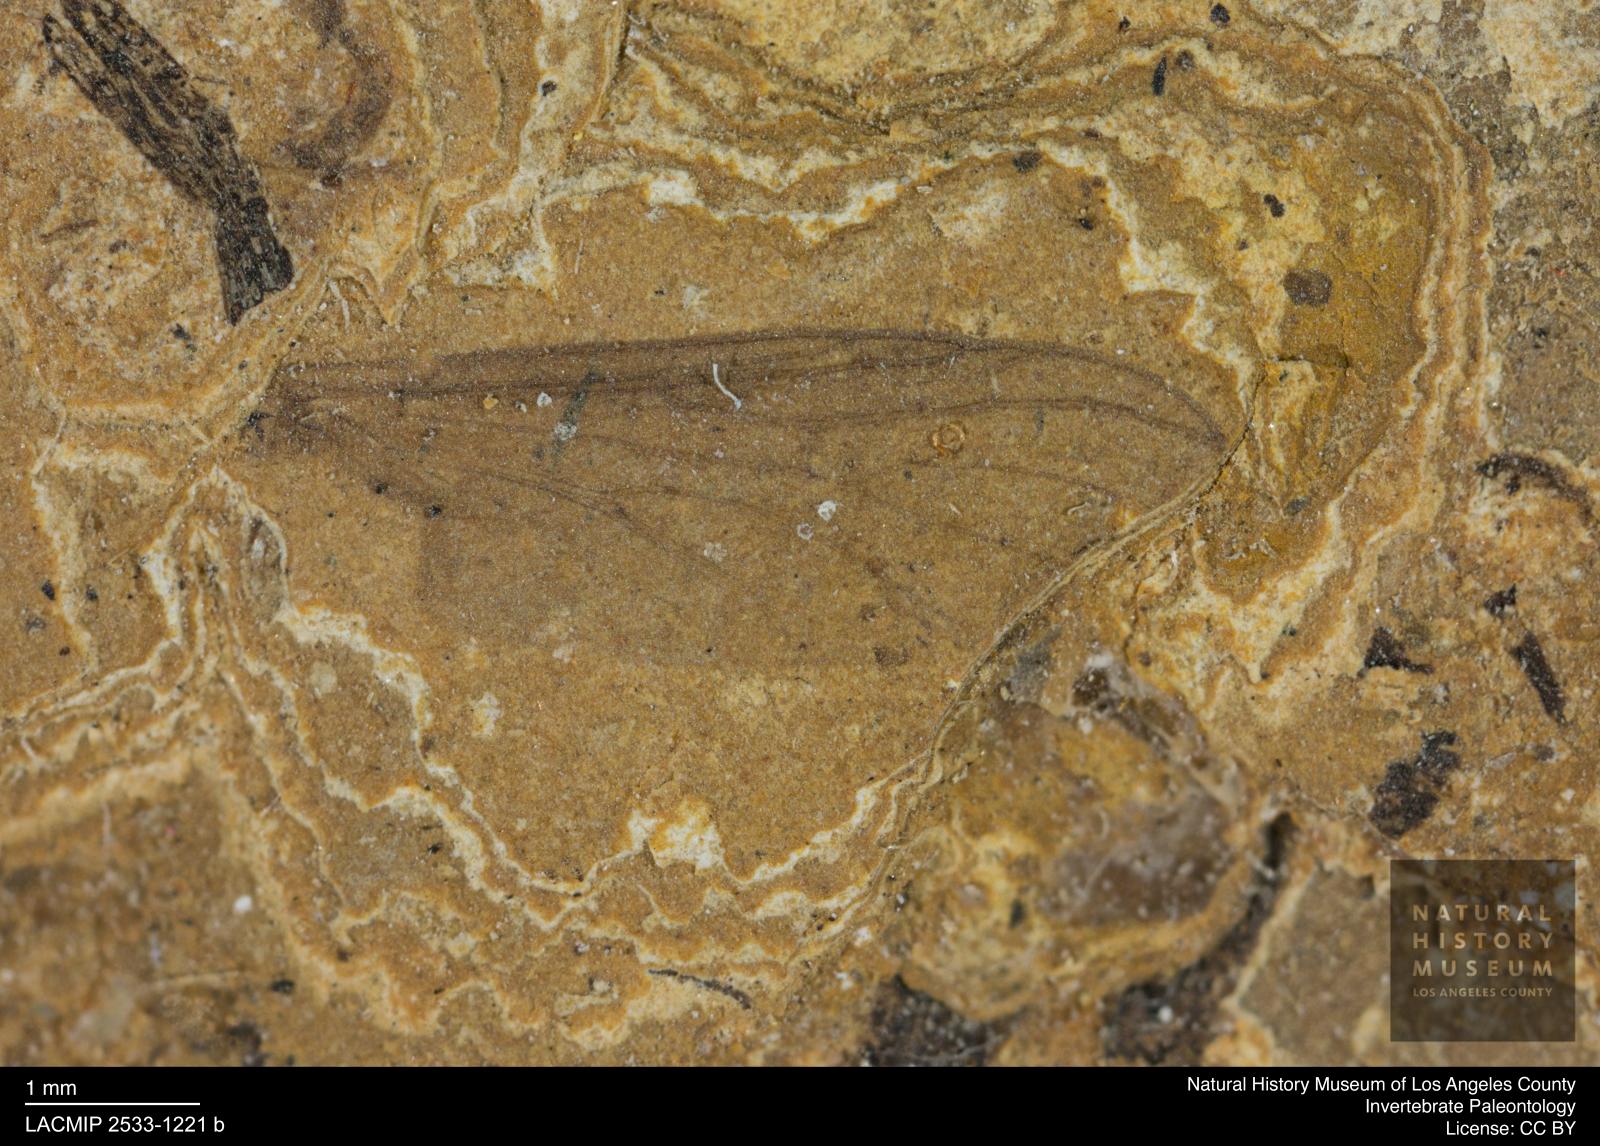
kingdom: Animalia
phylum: Arthropoda
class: Insecta
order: Diptera
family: Bibionidae
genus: Plecia
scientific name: Plecia hypogaea
